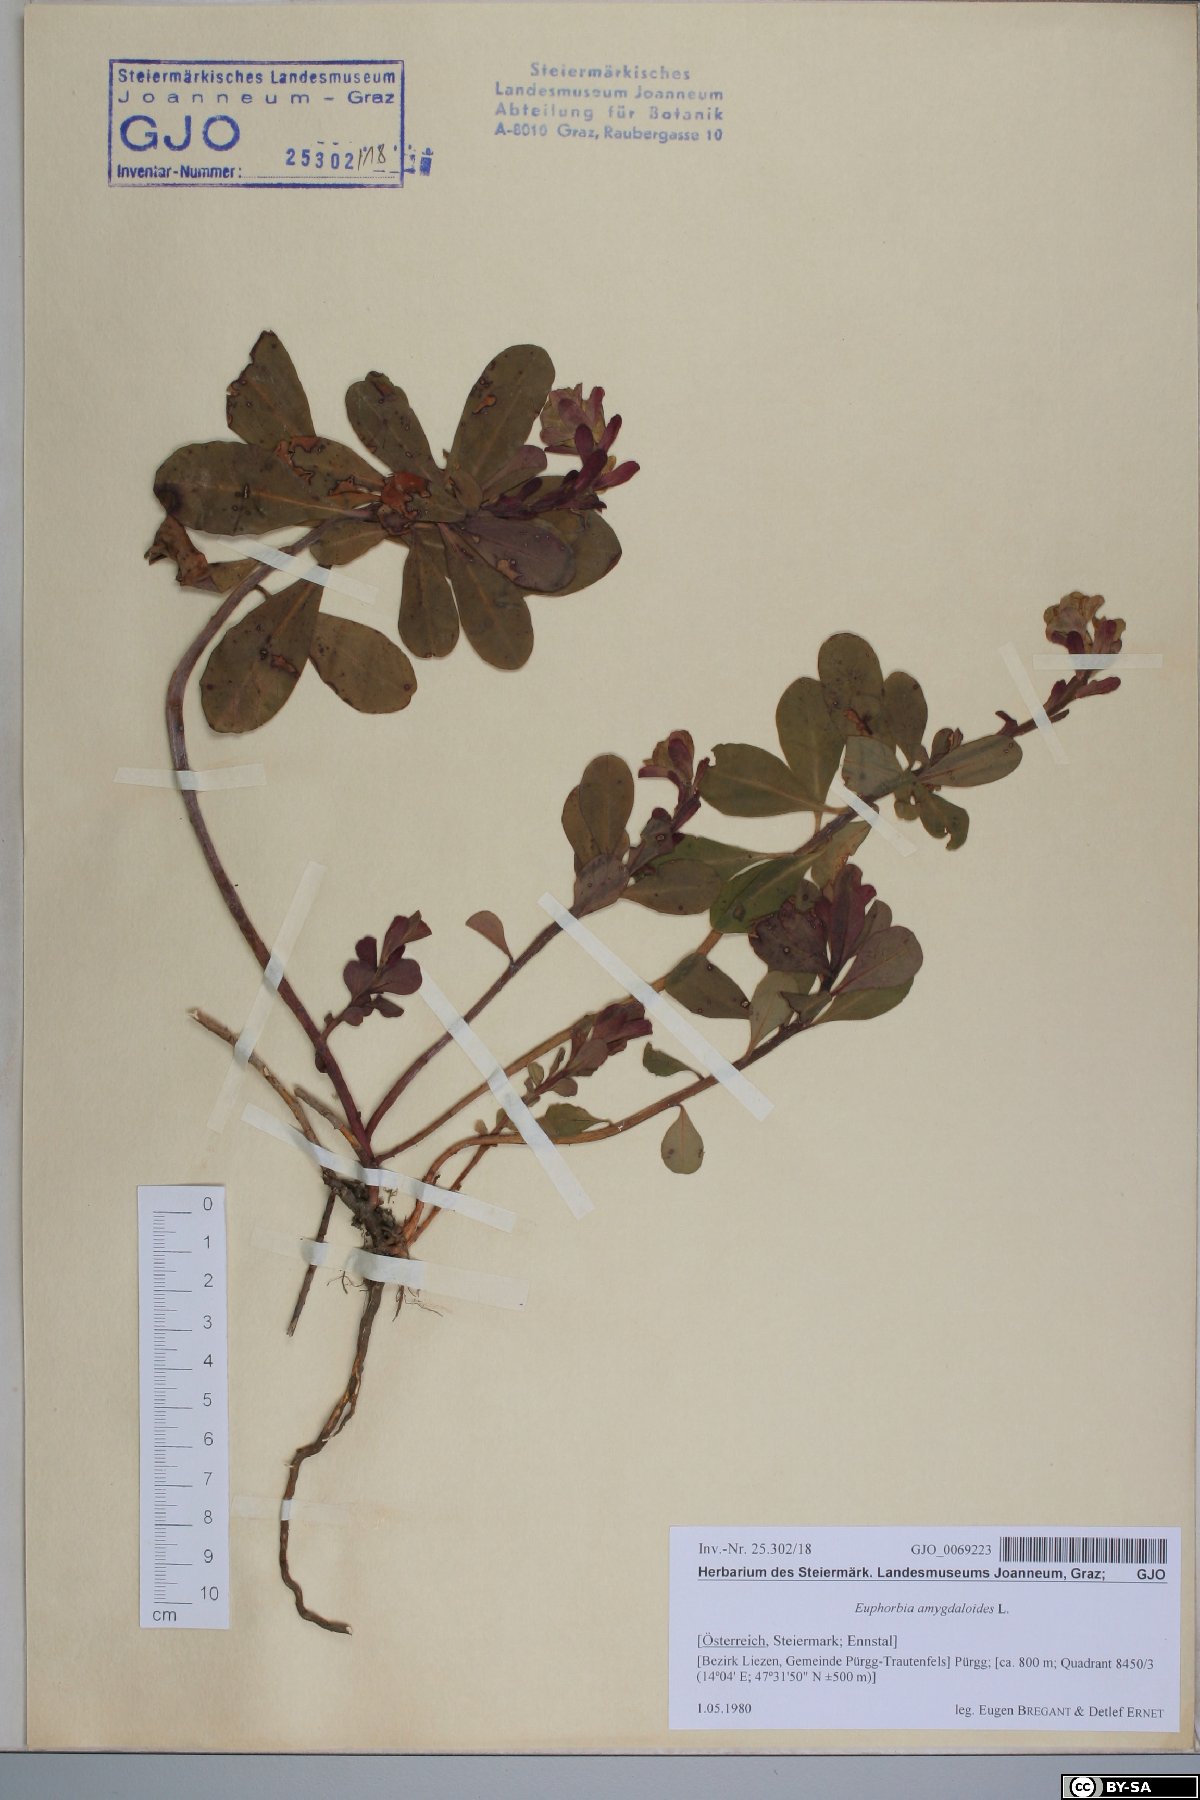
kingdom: Plantae
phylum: Tracheophyta
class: Magnoliopsida
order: Malpighiales
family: Euphorbiaceae
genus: Euphorbia
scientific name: Euphorbia amygdaloides
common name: Wood spurge
